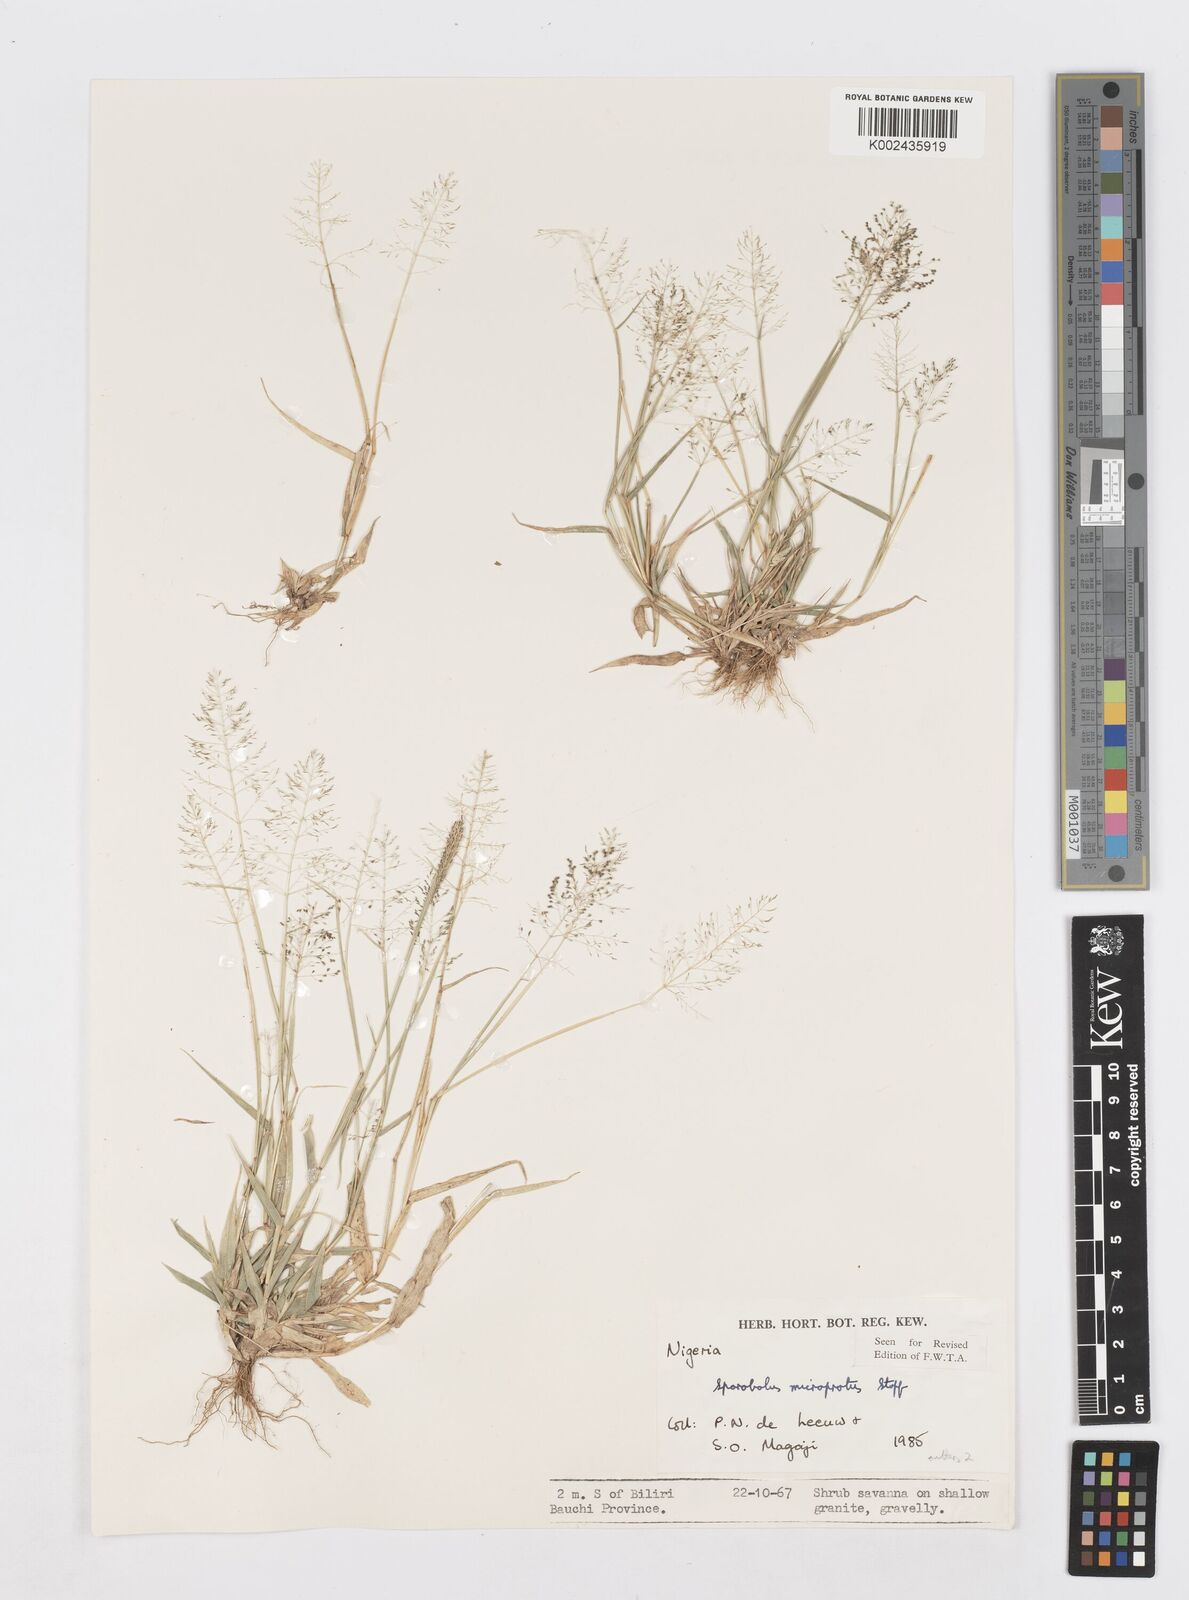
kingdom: Plantae
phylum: Tracheophyta
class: Liliopsida
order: Poales
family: Poaceae
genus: Sporobolus
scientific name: Sporobolus microprotus
